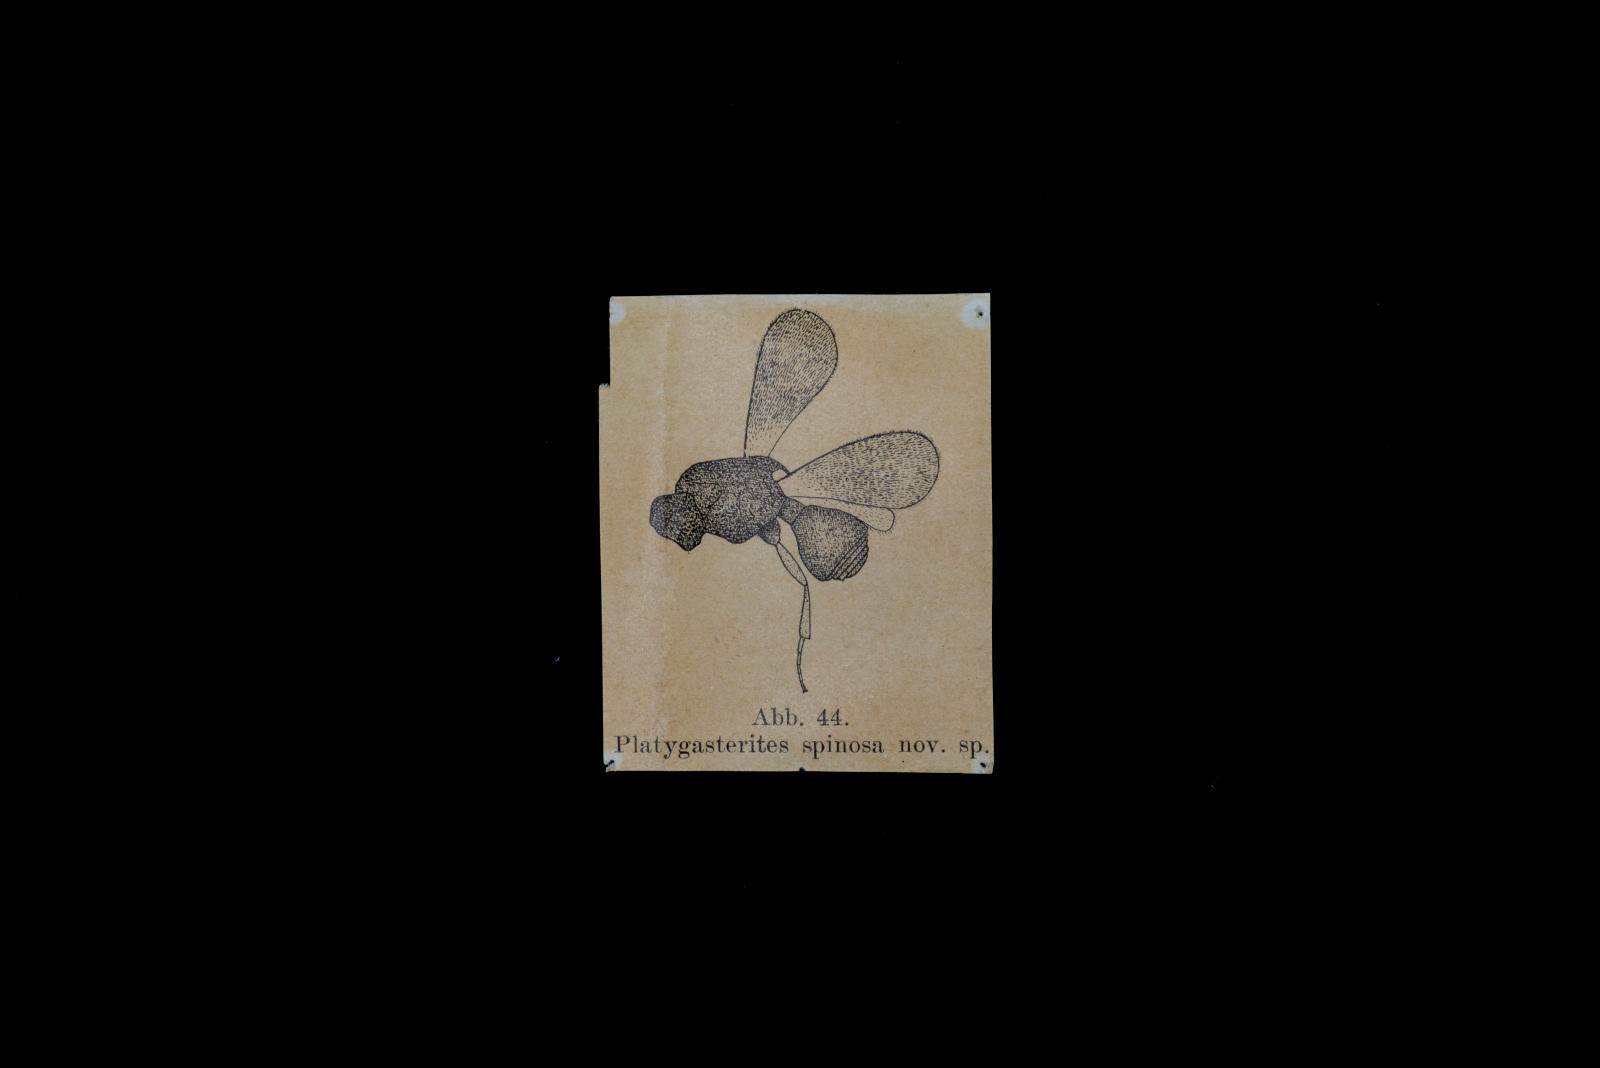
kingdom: Animalia
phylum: Arthropoda
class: Insecta
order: Hymenoptera
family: Platygastridae
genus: Platygasterites
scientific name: Platygasterites spinosa
